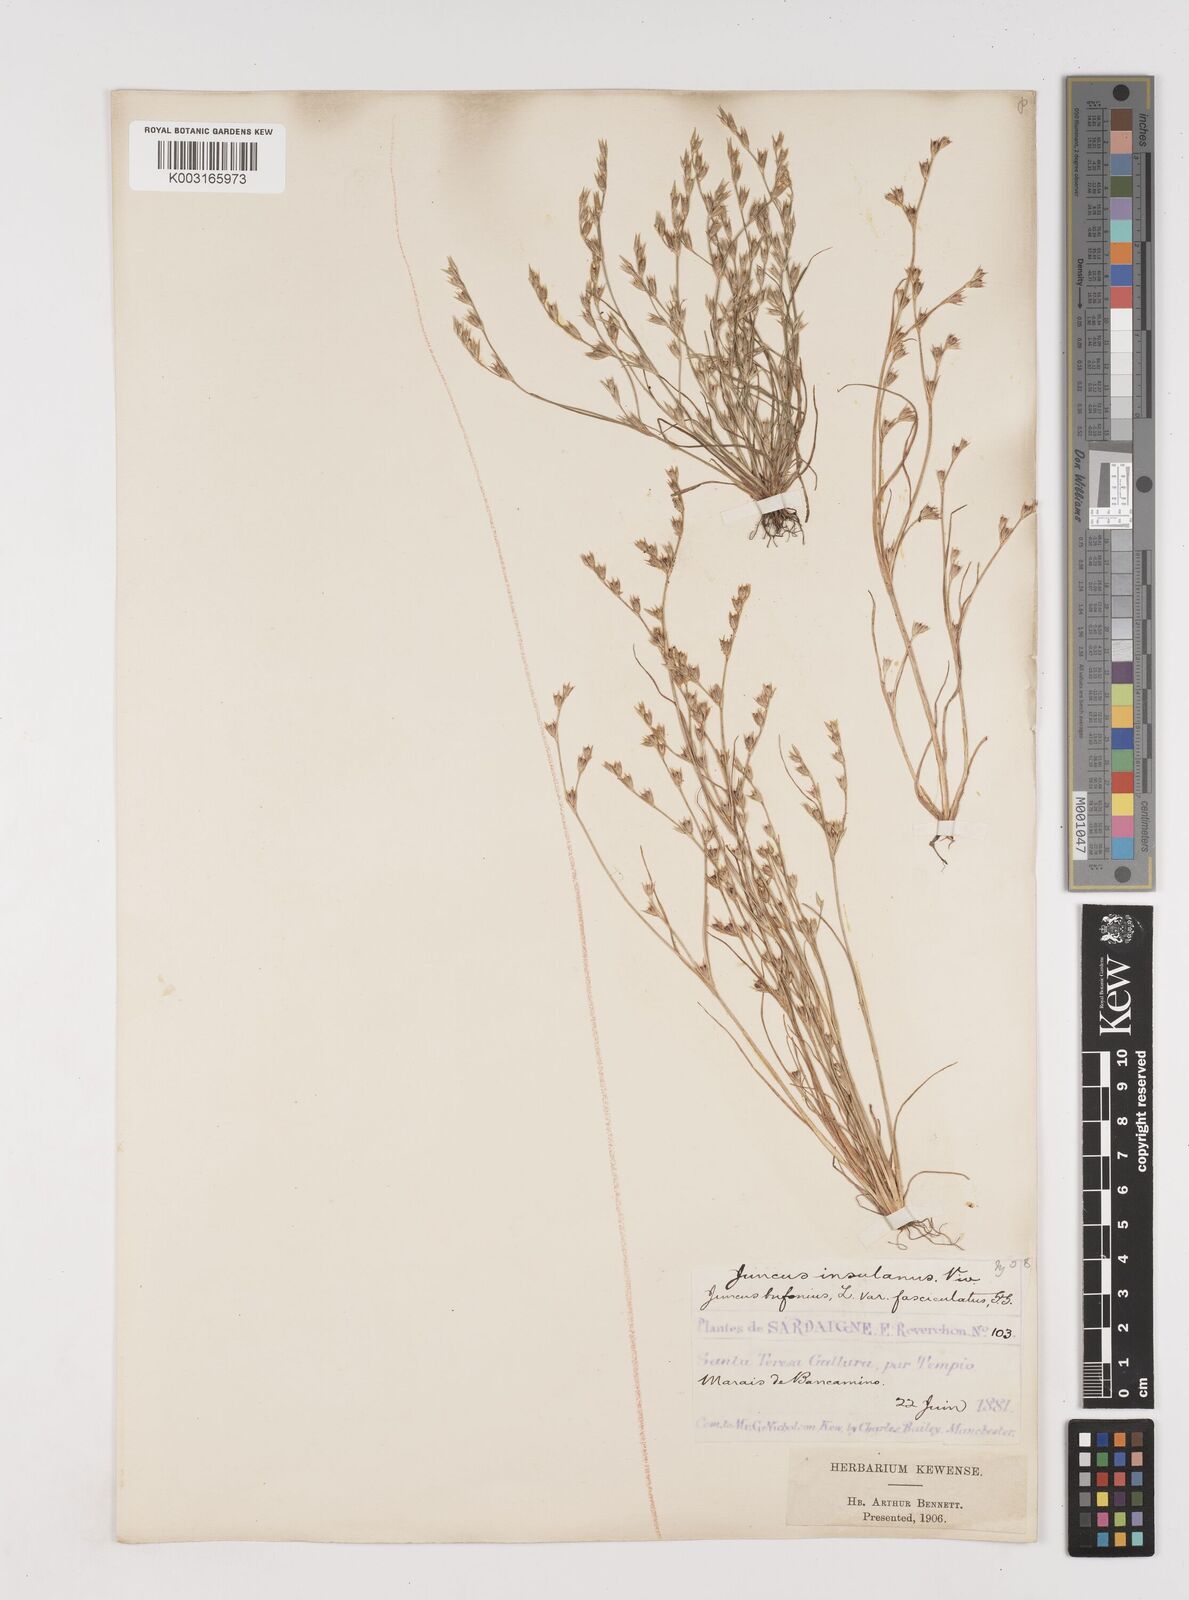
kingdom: Plantae
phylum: Tracheophyta
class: Liliopsida
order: Poales
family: Juncaceae
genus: Juncus
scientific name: Juncus bufonius
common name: Toad rush
